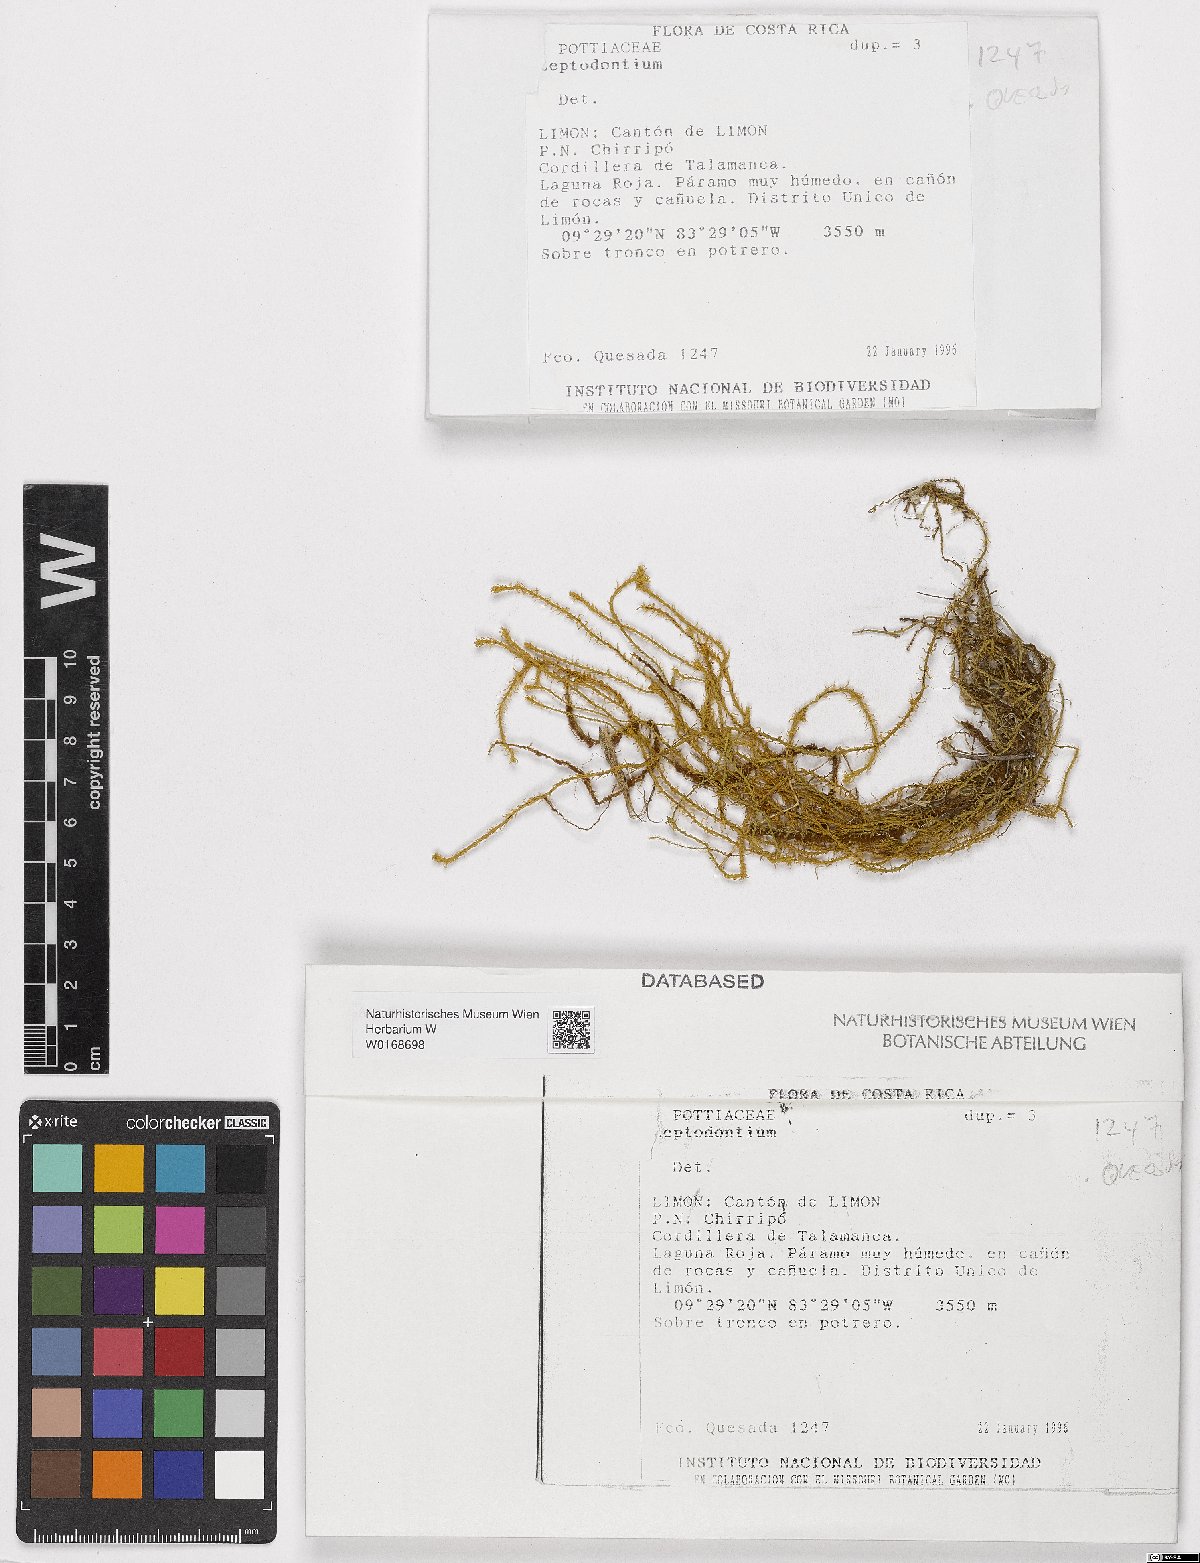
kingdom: Plantae
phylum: Bryophyta
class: Bryopsida
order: Pottiales
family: Pottiaceae
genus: Leptodontium
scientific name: Leptodontium
